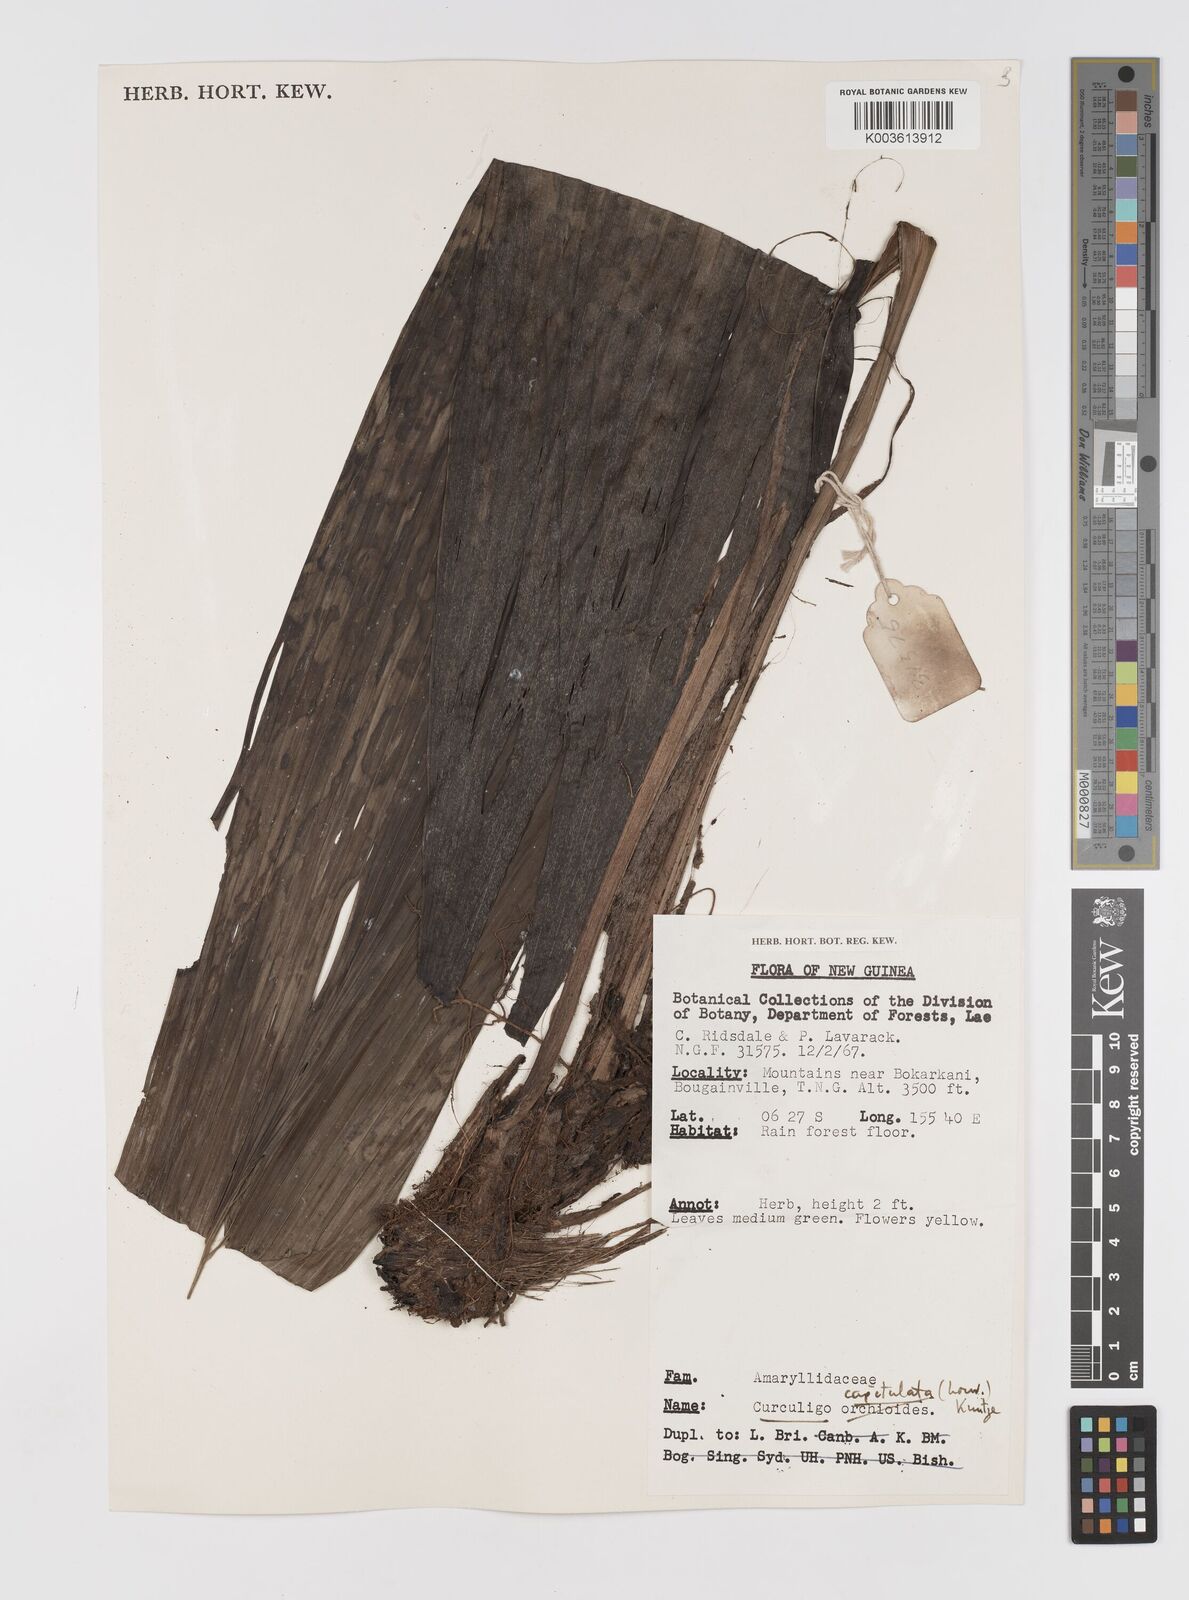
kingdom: Plantae
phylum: Tracheophyta
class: Liliopsida
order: Asparagales
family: Hypoxidaceae
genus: Curculigo
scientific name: Curculigo capitulata
